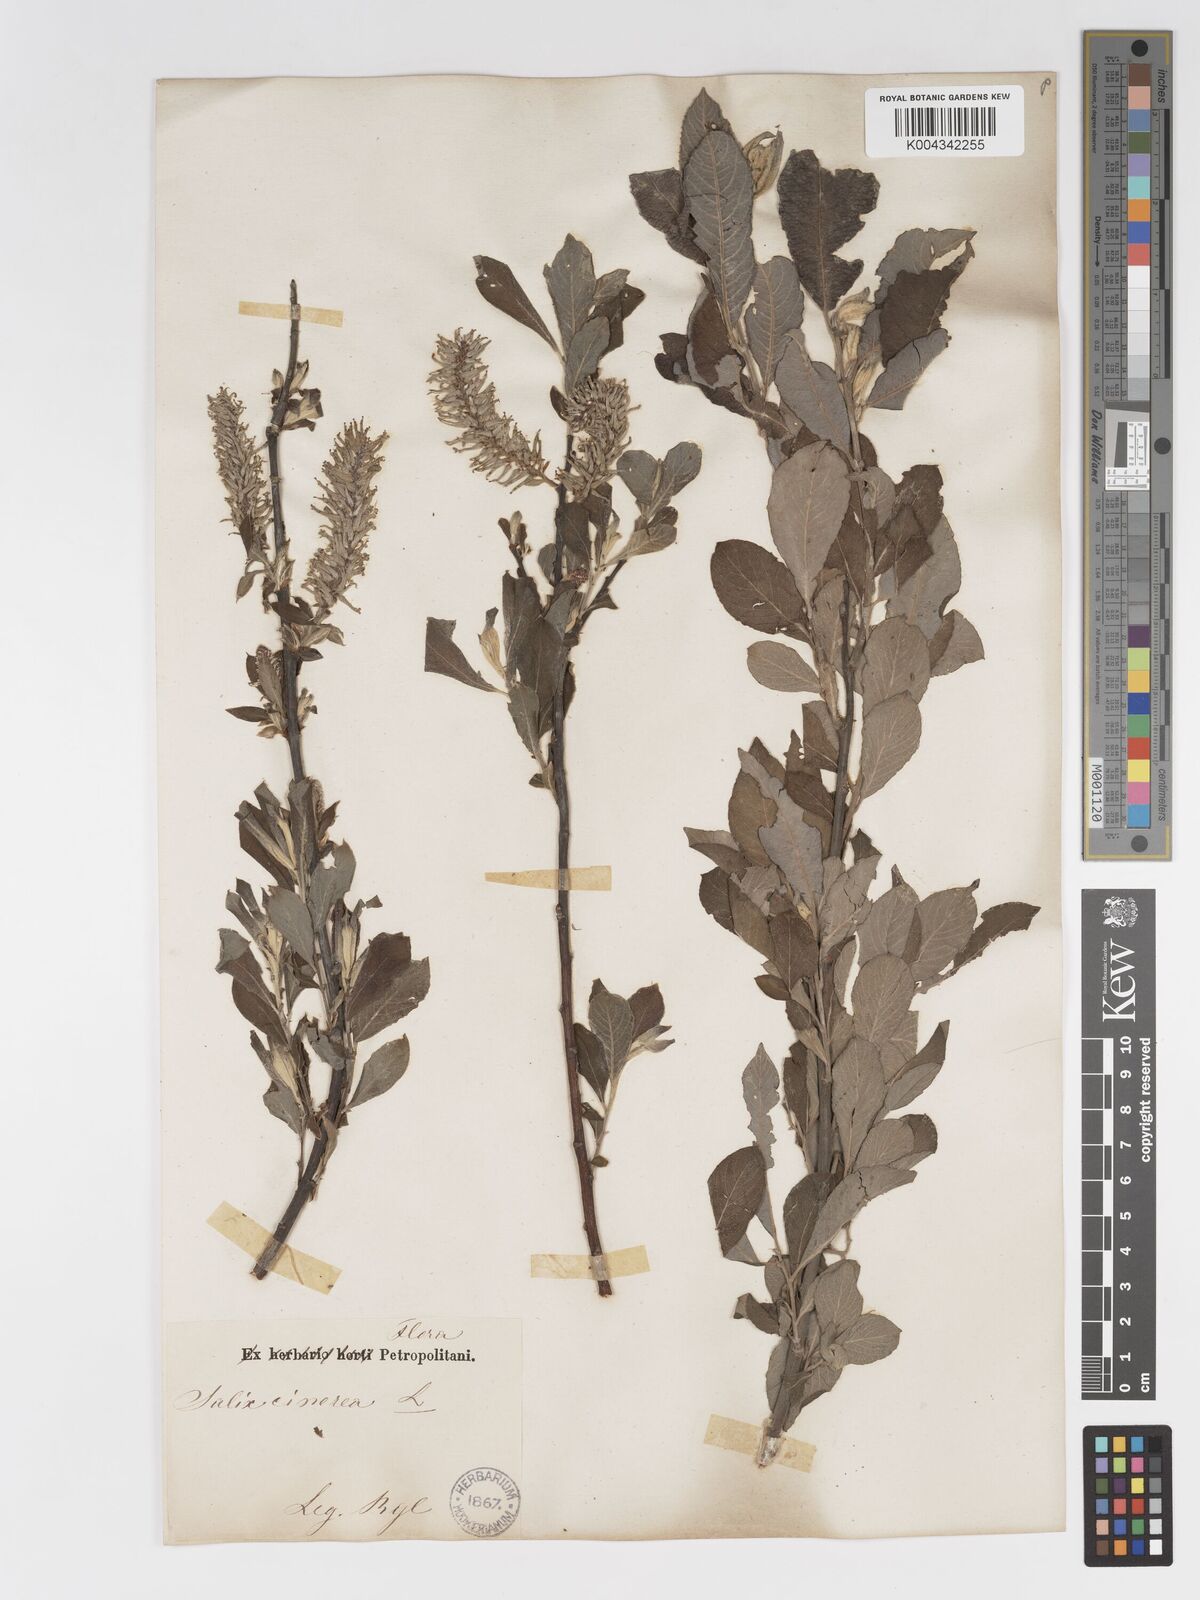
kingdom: Plantae
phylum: Tracheophyta
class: Magnoliopsida
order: Malpighiales
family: Salicaceae
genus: Salix
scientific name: Salix
